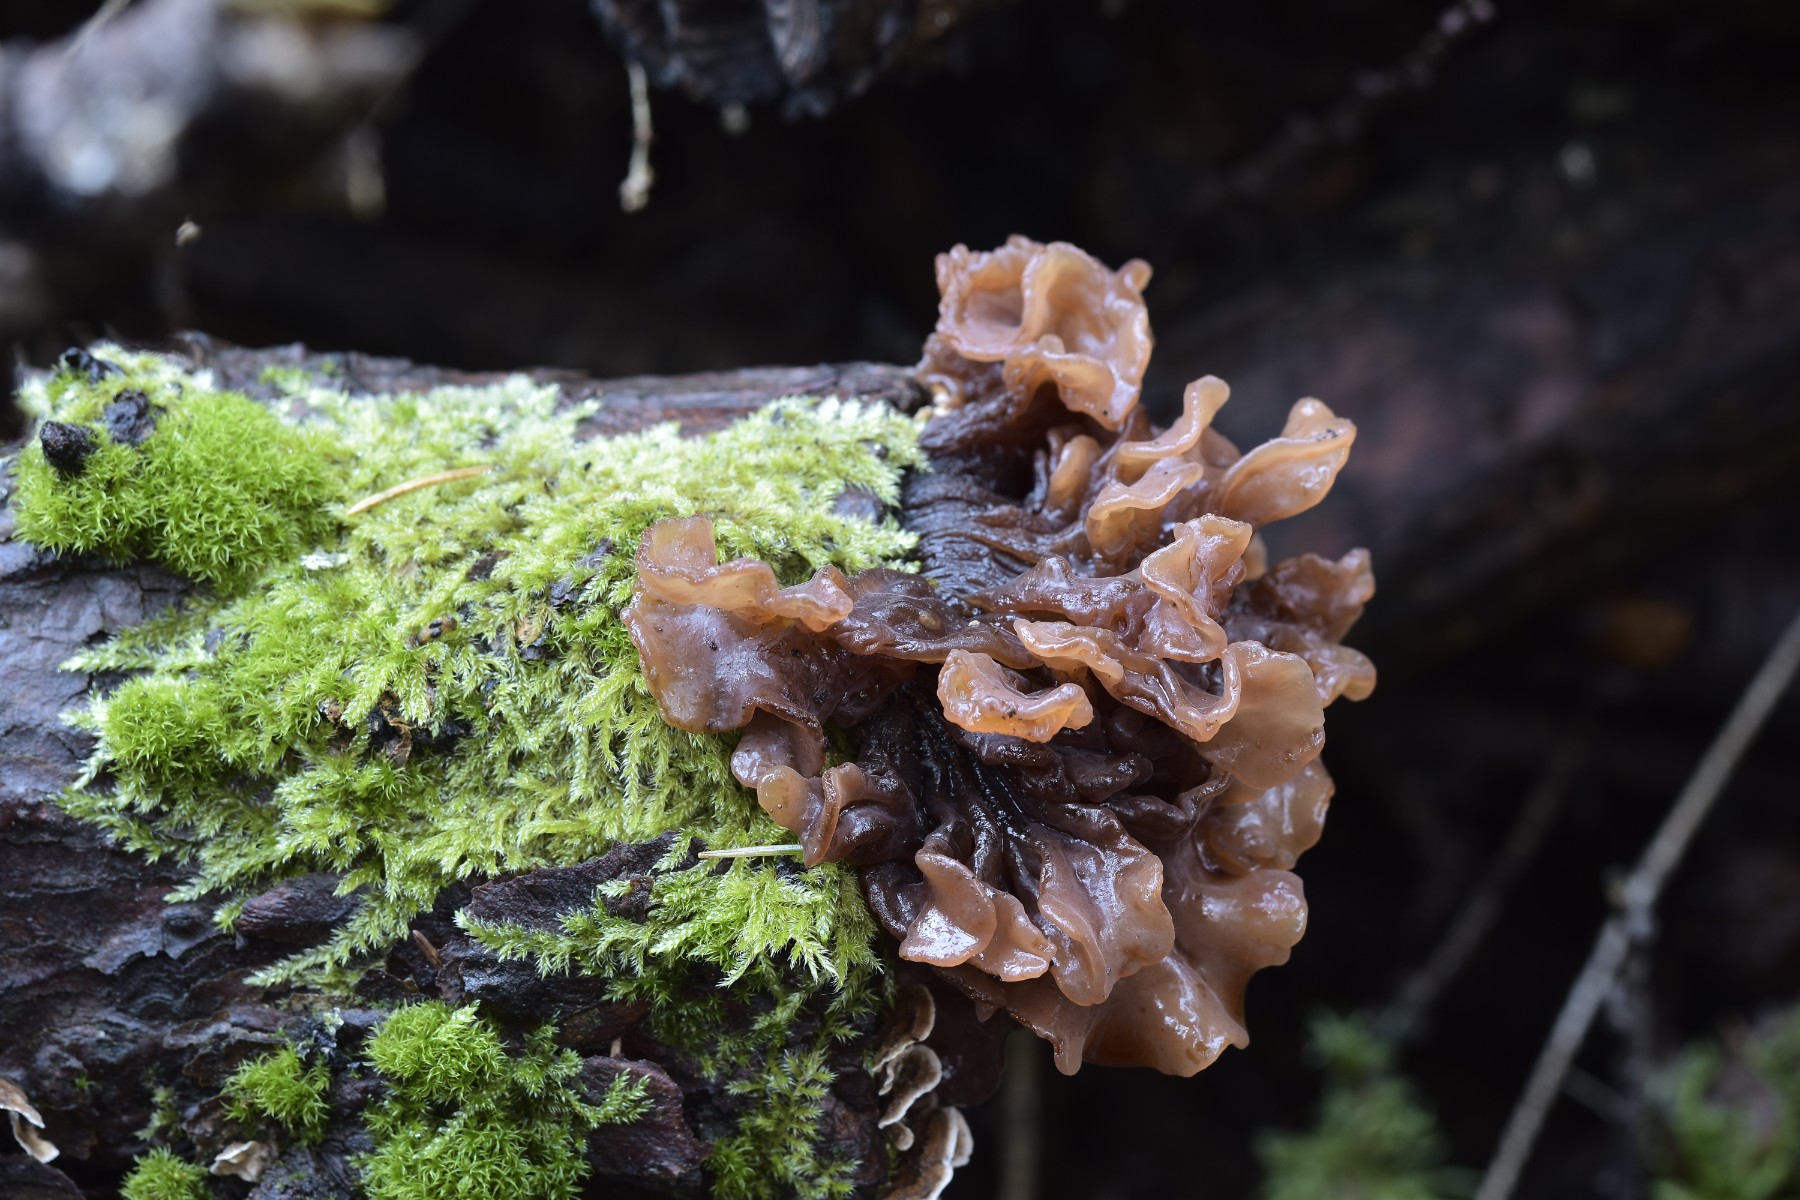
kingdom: Fungi
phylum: Basidiomycota
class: Tremellomycetes
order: Tremellales
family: Tremellaceae
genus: Phaeotremella
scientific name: Phaeotremella foliacea
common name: brun bævresvamp
